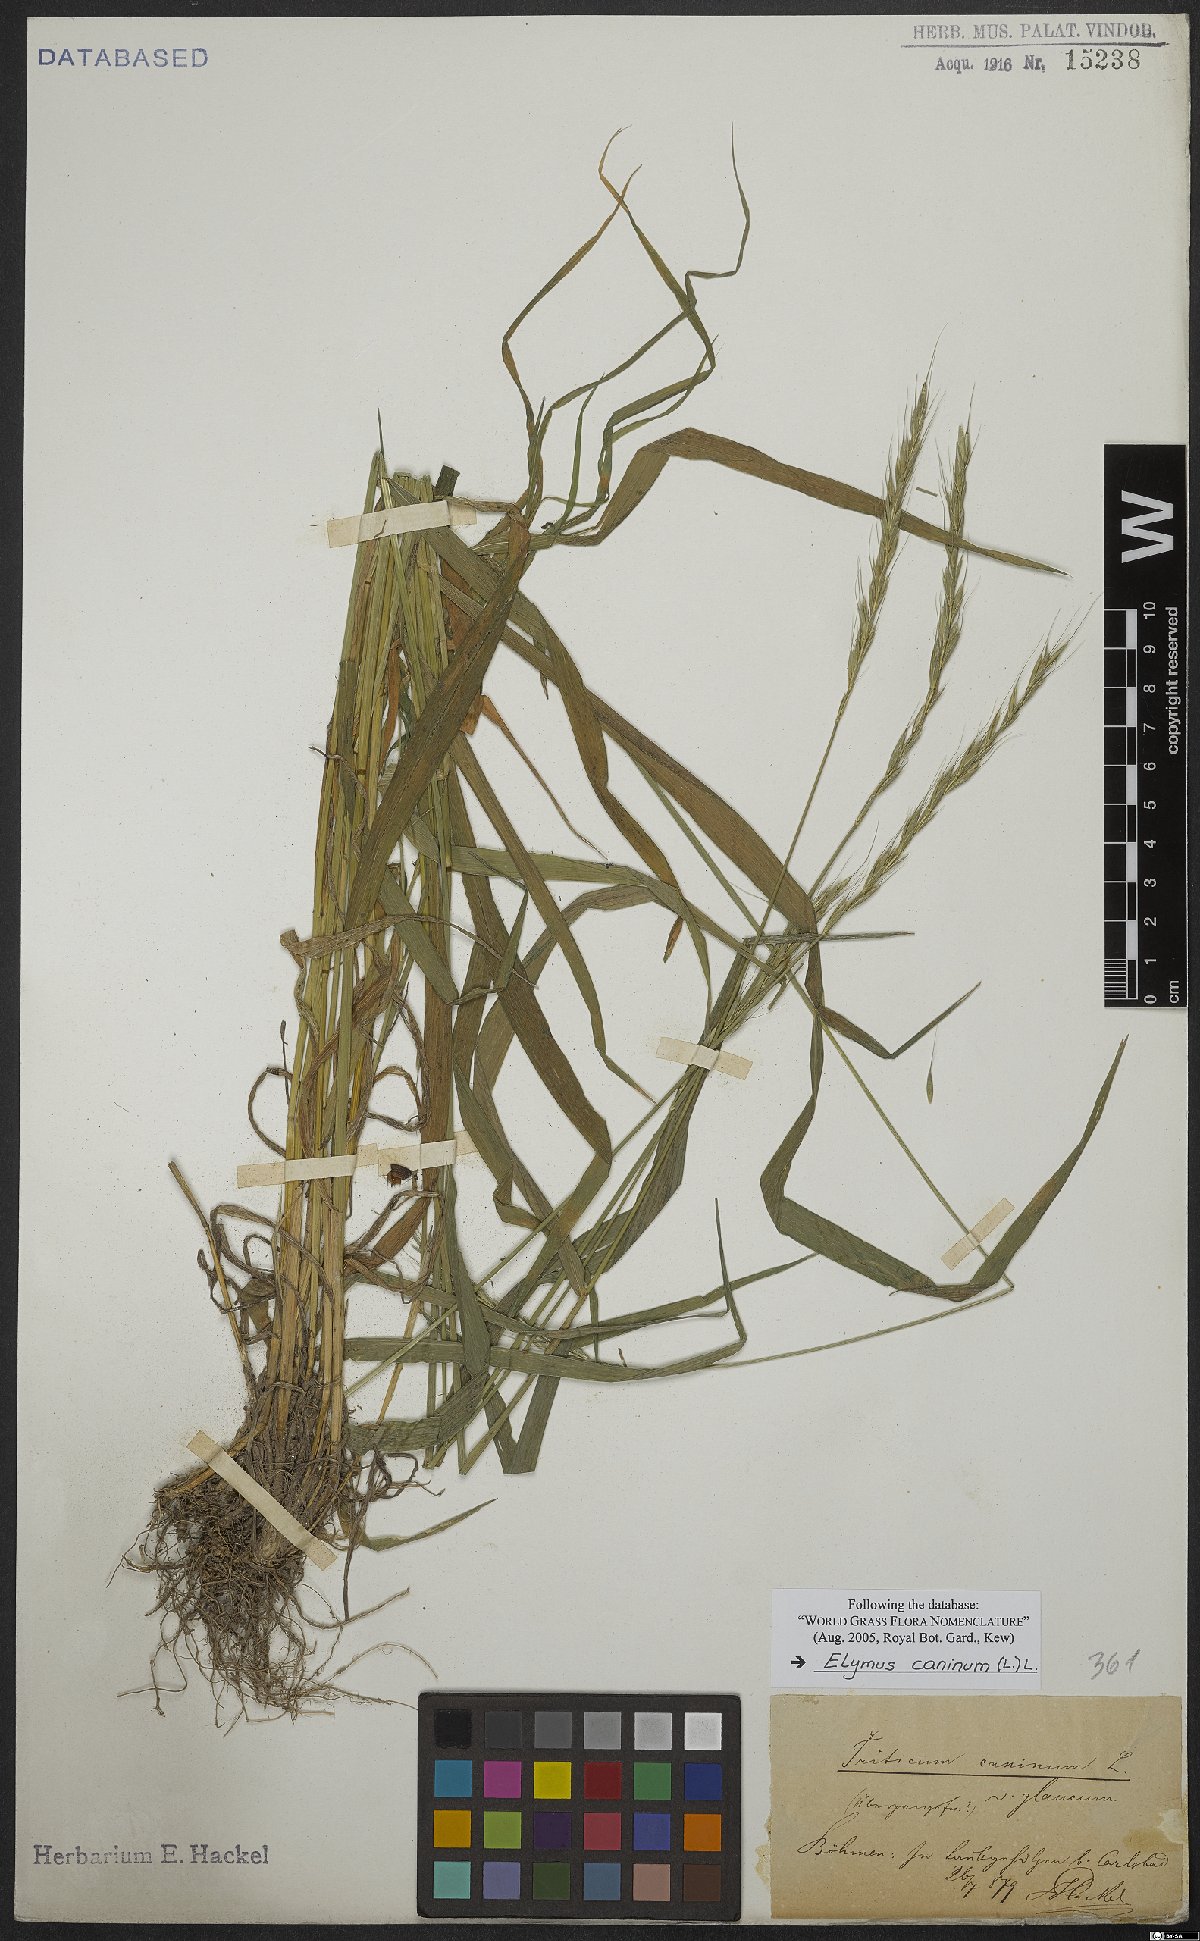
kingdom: Plantae
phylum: Tracheophyta
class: Liliopsida
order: Poales
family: Poaceae
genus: Elymus
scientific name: Elymus caninus
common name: Bearded couch
